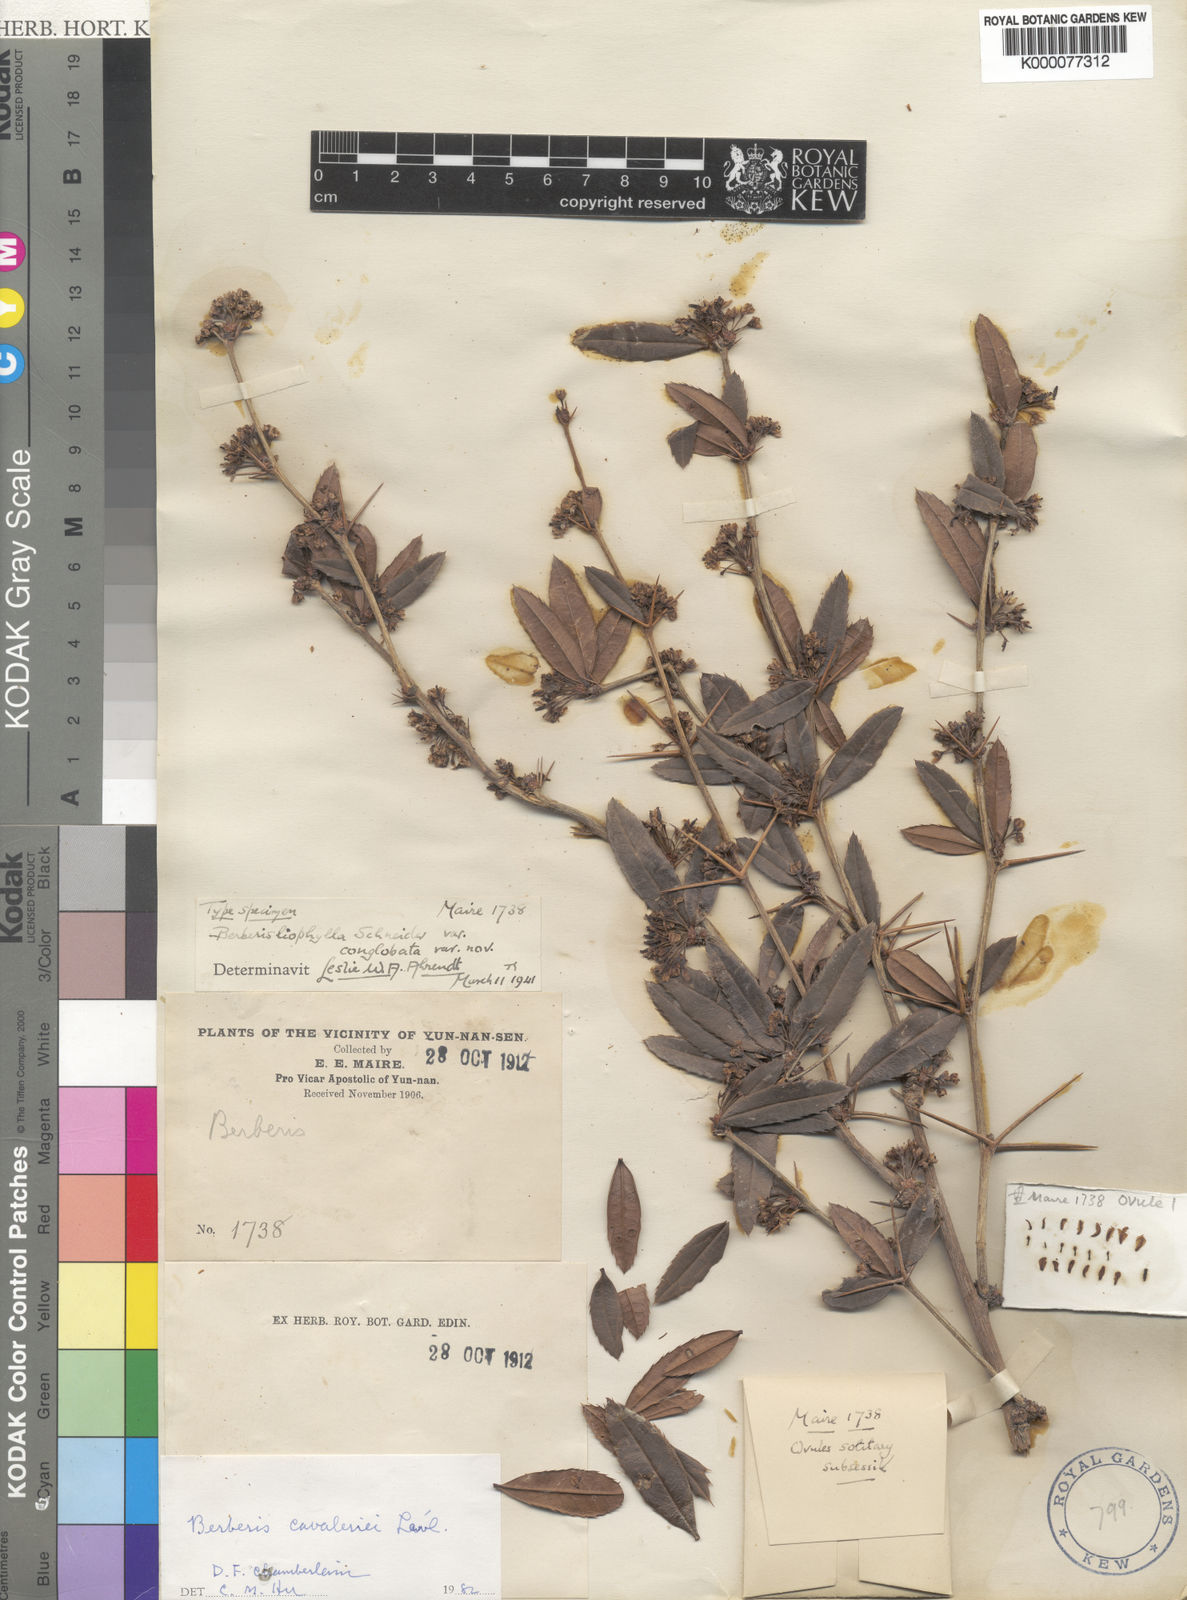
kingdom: Plantae
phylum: Tracheophyta
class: Magnoliopsida
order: Ranunculales
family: Berberidaceae
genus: Berberis
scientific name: Berberis
